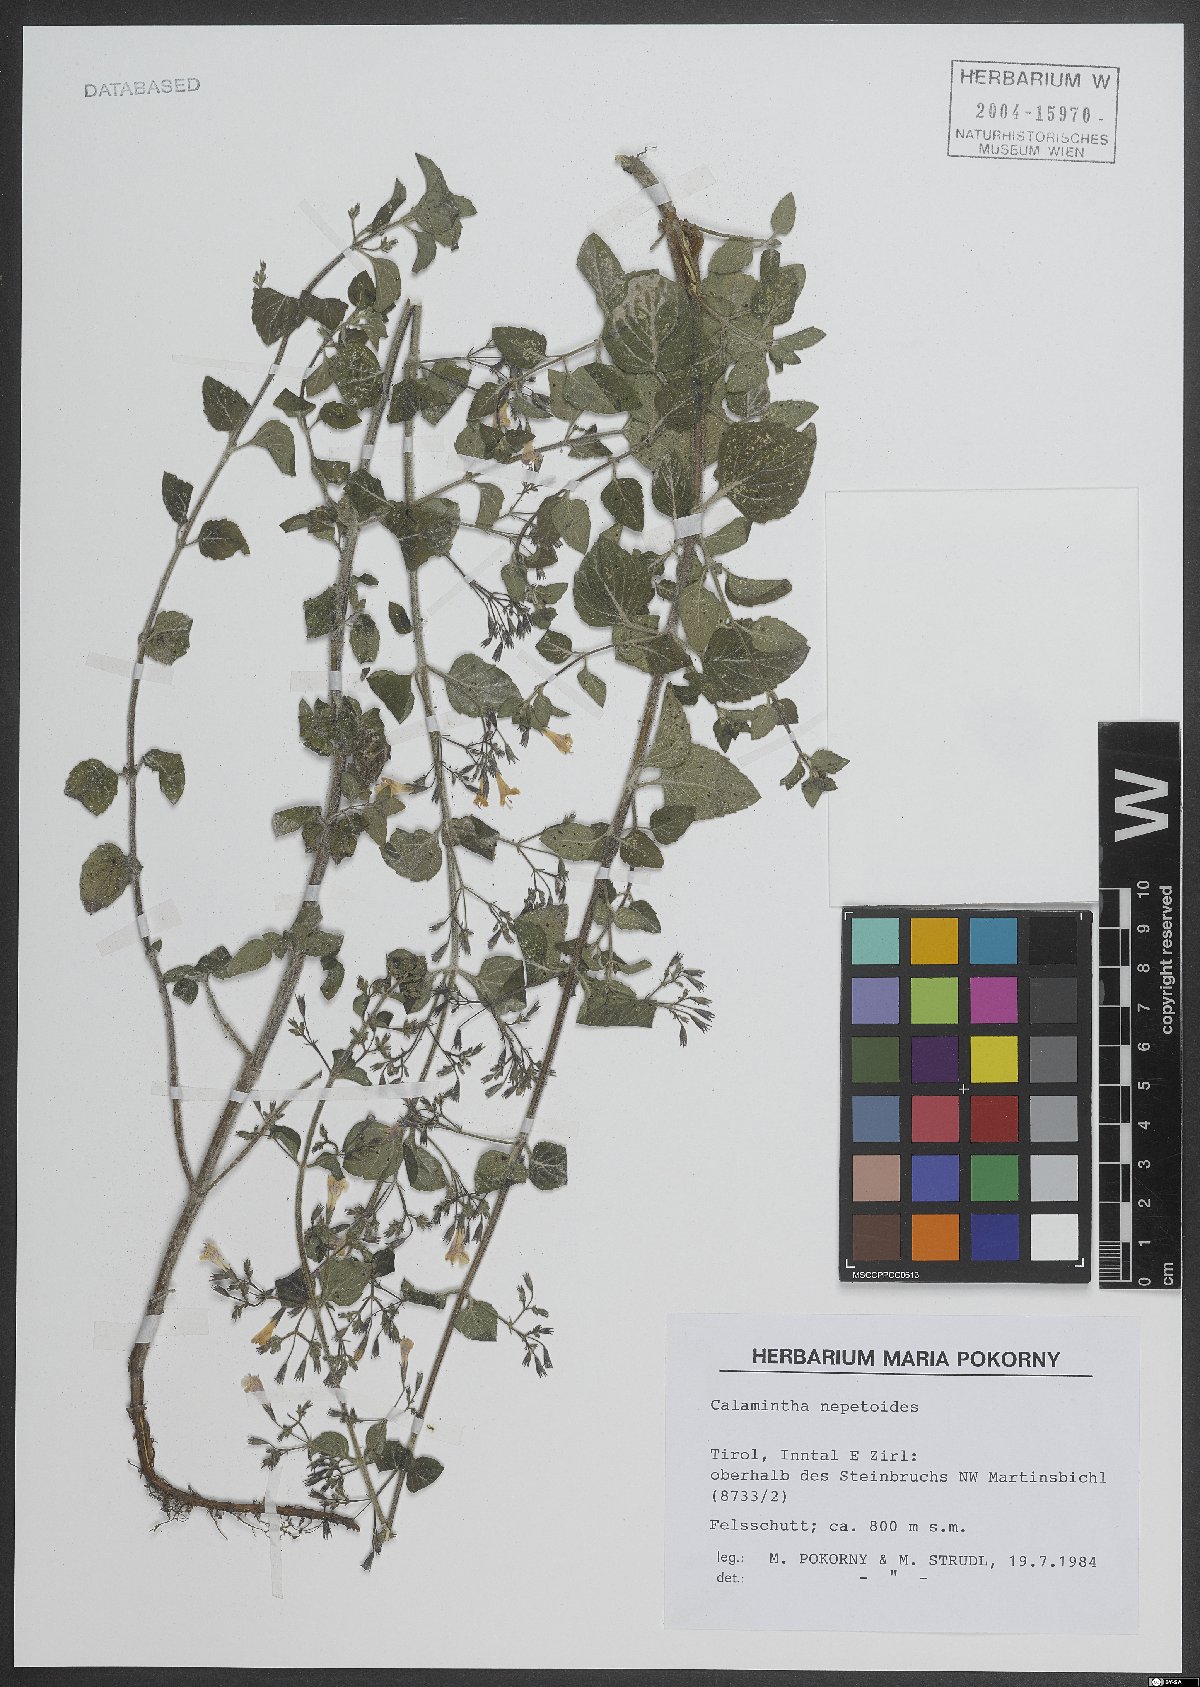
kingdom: Plantae
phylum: Tracheophyta
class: Magnoliopsida
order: Lamiales
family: Lamiaceae
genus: Clinopodium
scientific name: Clinopodium nepeta
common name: Lesser calamint
